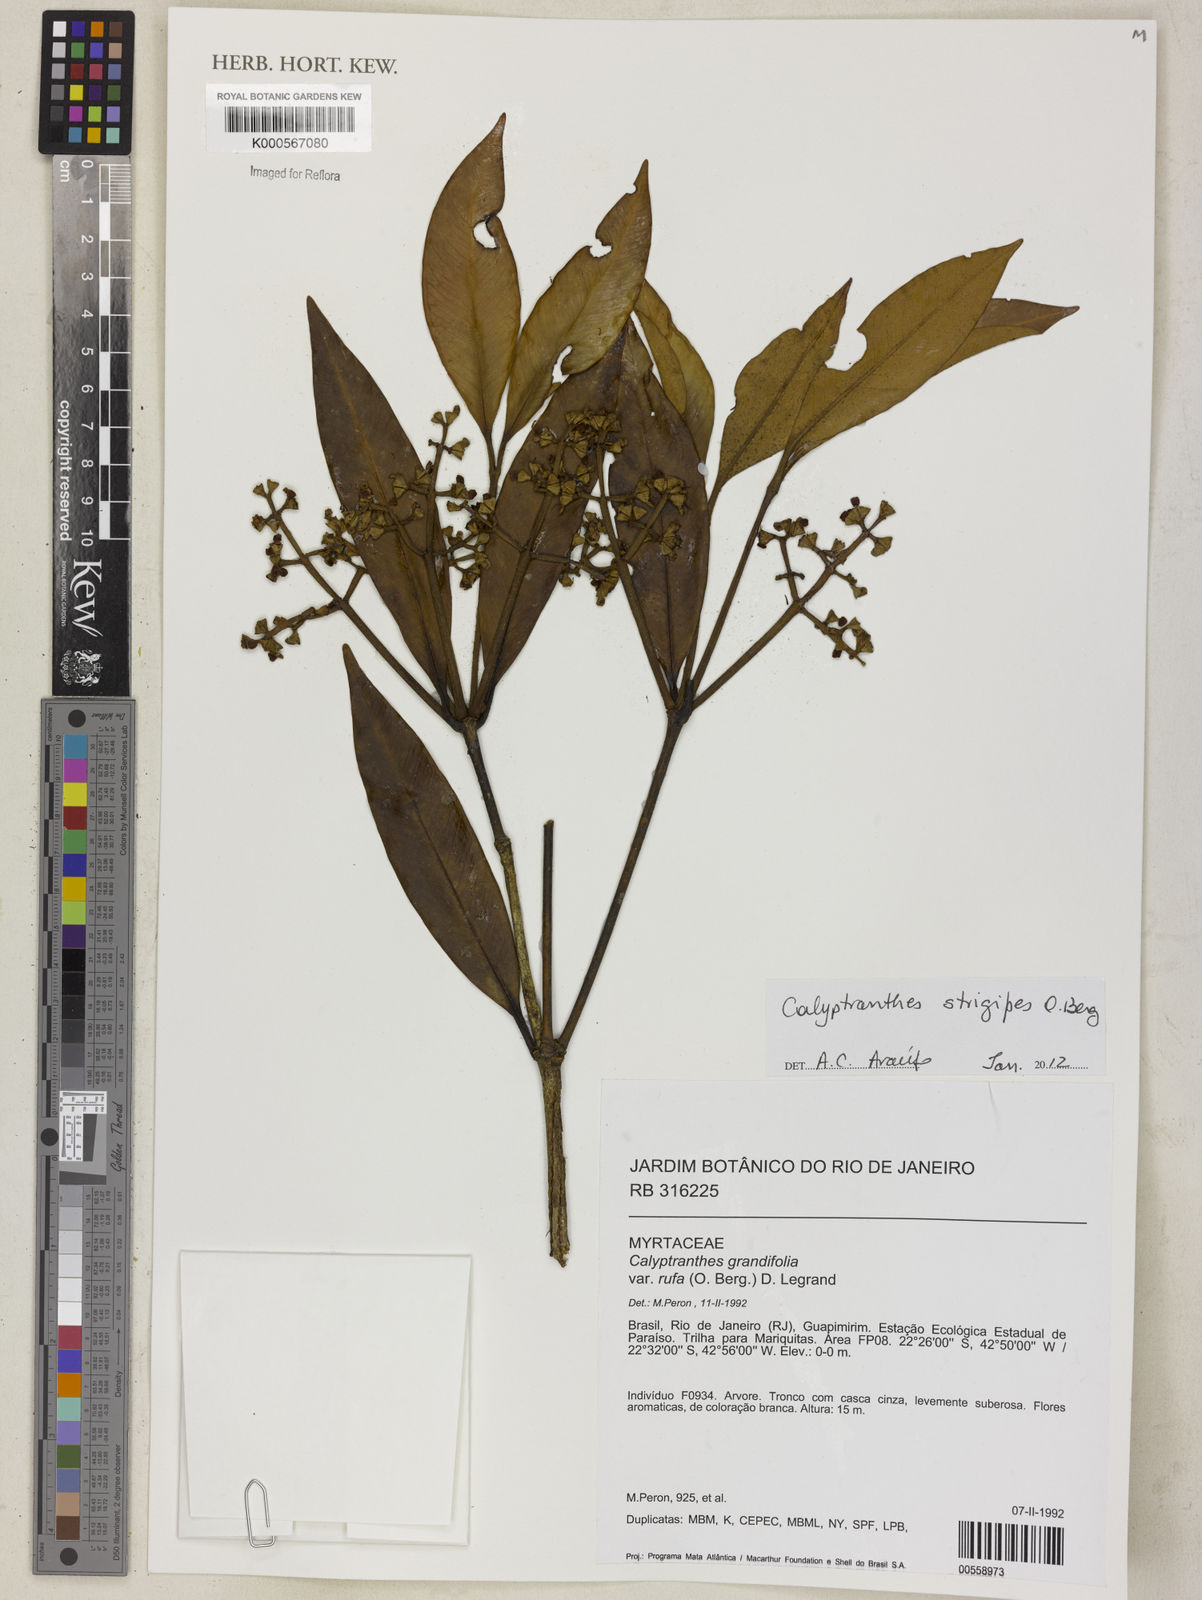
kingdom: Plantae
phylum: Tracheophyta
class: Magnoliopsida
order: Myrtales
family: Myrtaceae
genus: Myrcia
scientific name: Myrcia strigosa
